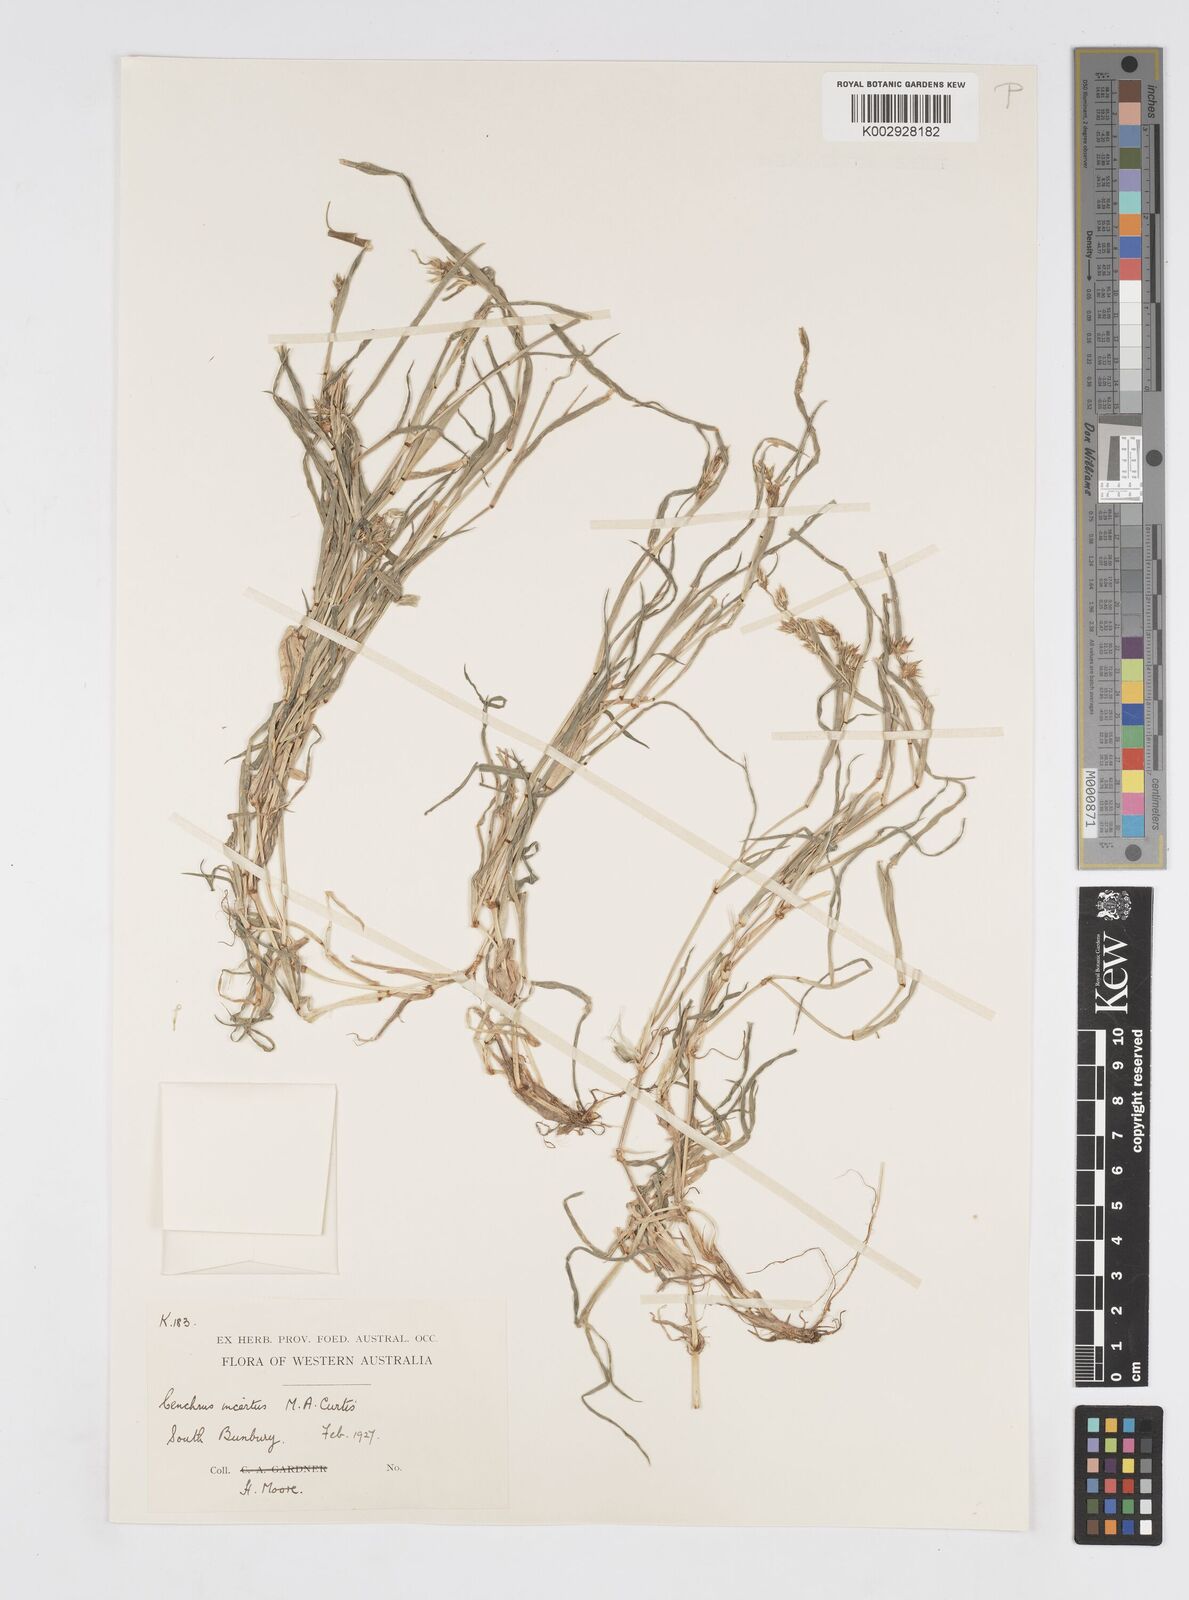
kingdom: Plantae
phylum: Tracheophyta
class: Liliopsida
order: Poales
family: Poaceae
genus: Cenchrus
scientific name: Cenchrus spinifex
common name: Coast sandbur
